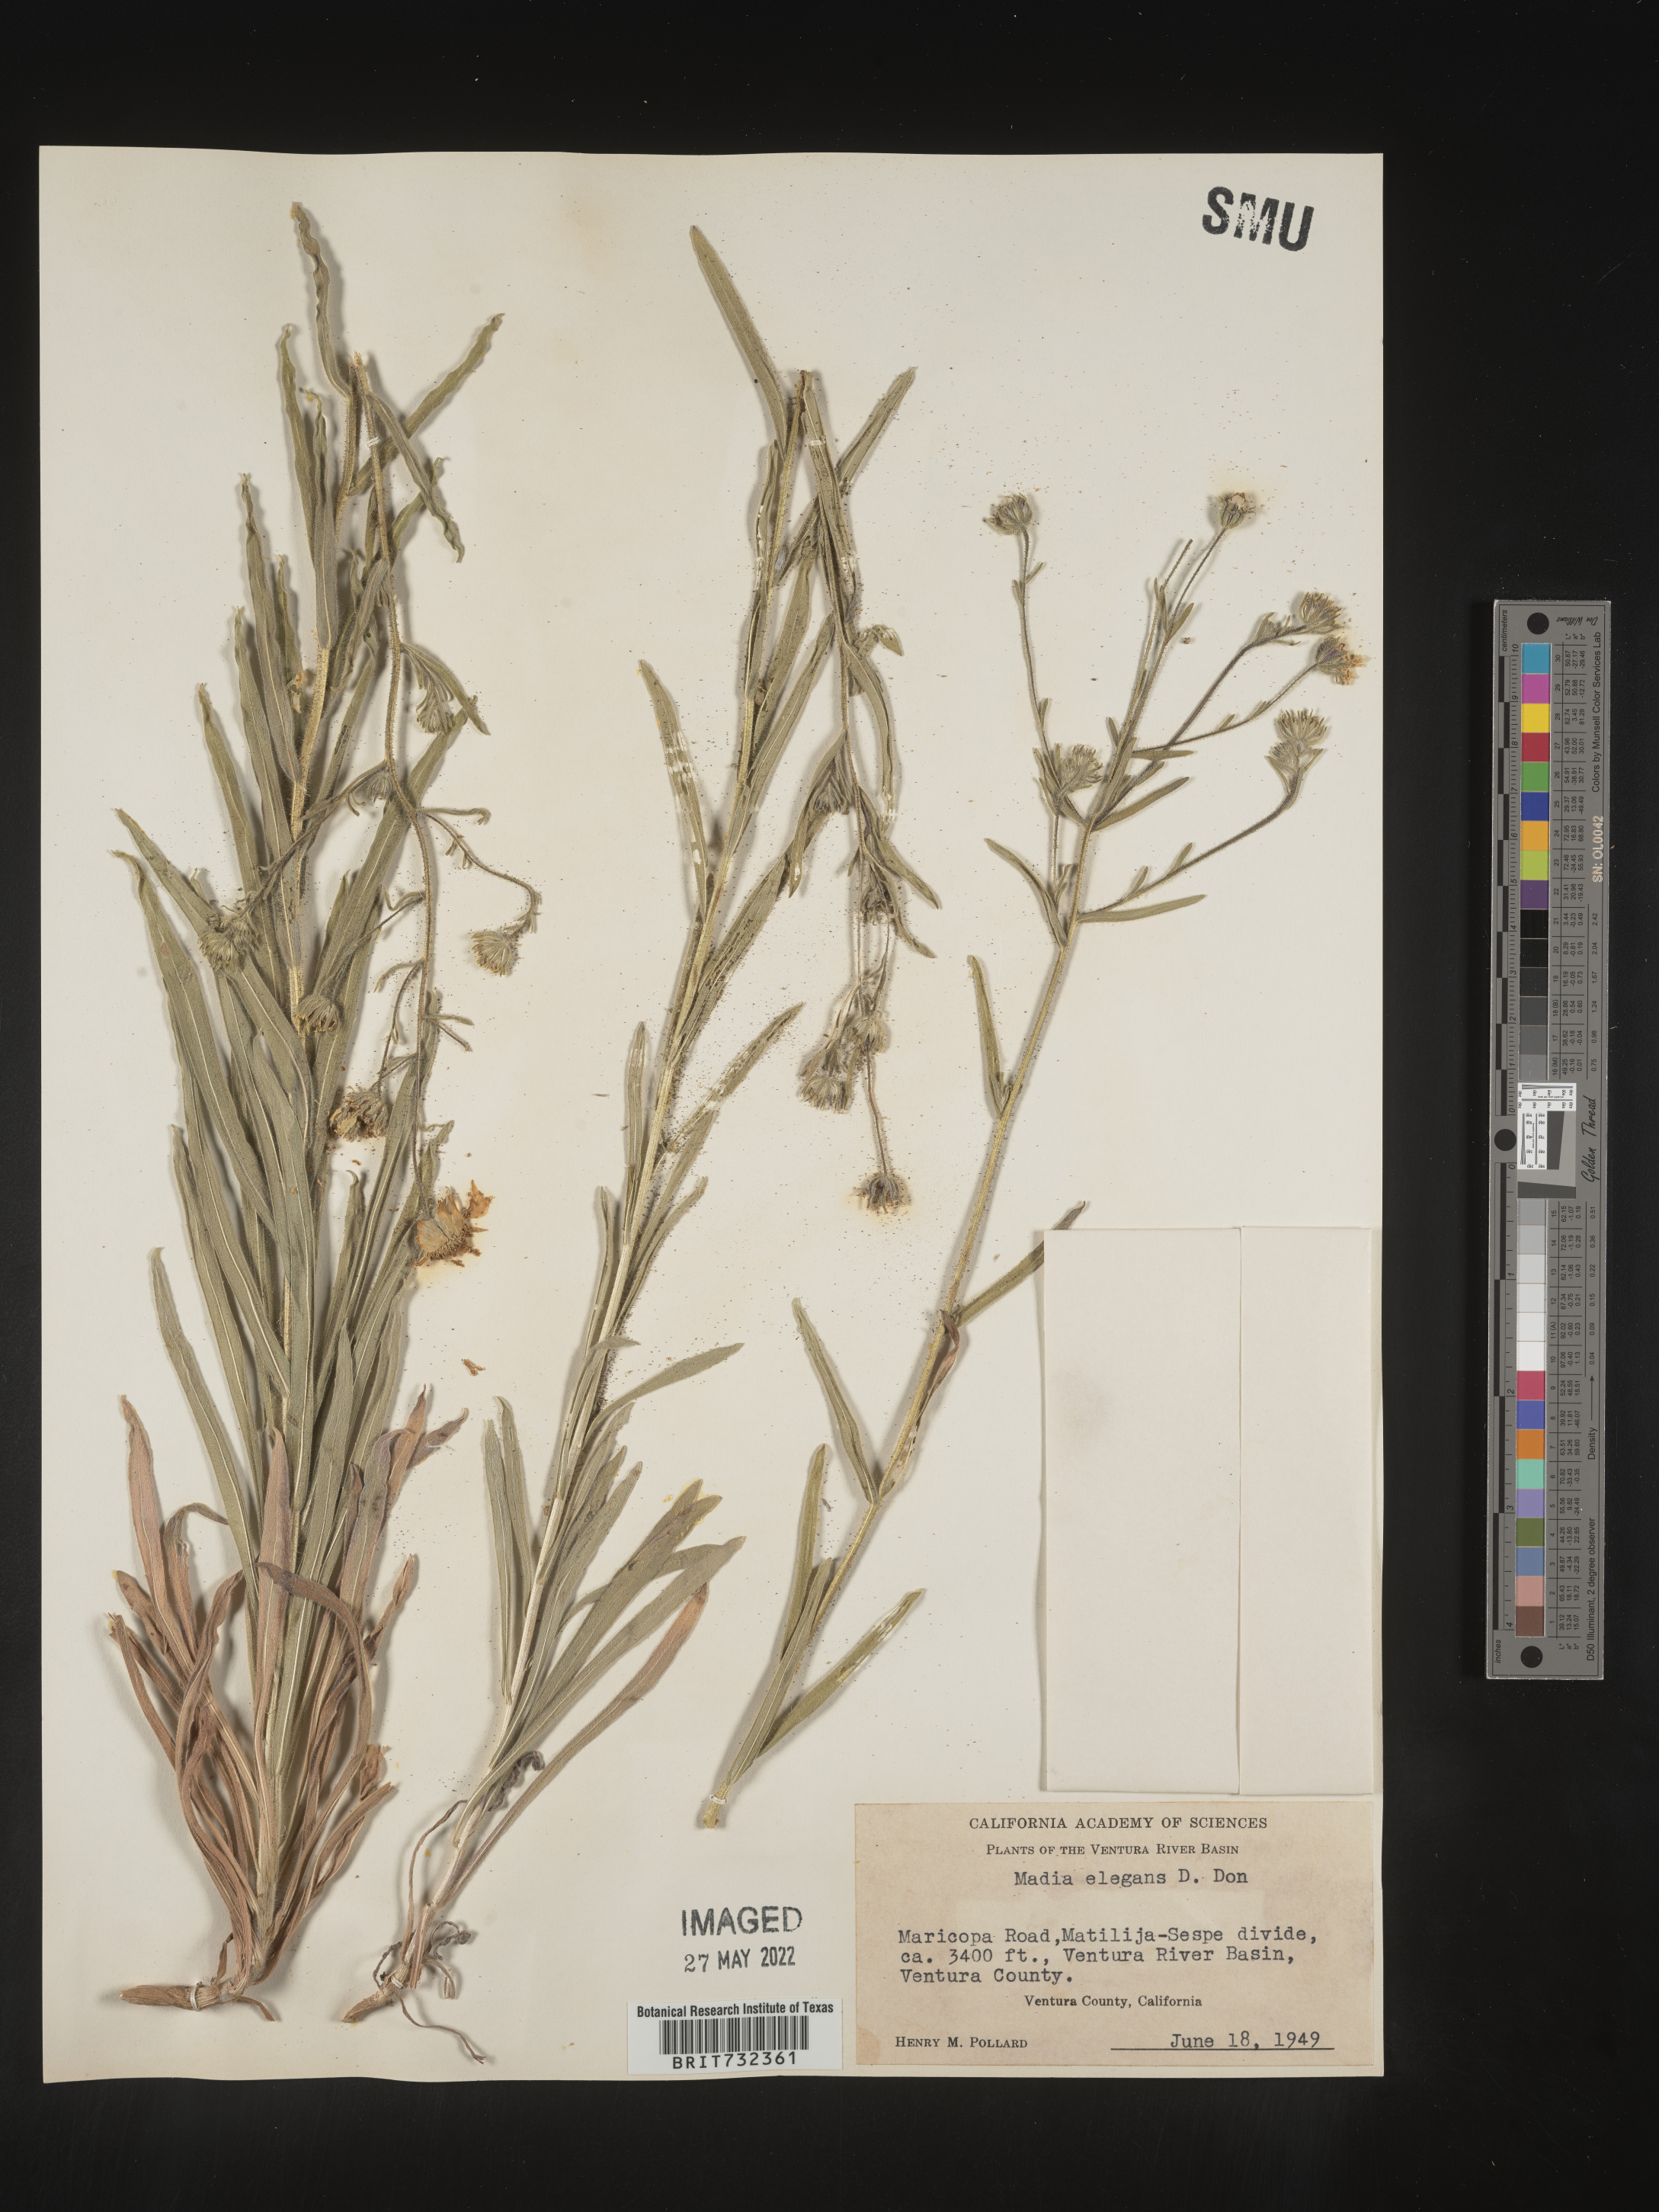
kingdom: Plantae
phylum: Tracheophyta
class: Magnoliopsida
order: Asterales
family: Asteraceae
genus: Madia
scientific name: Madia
